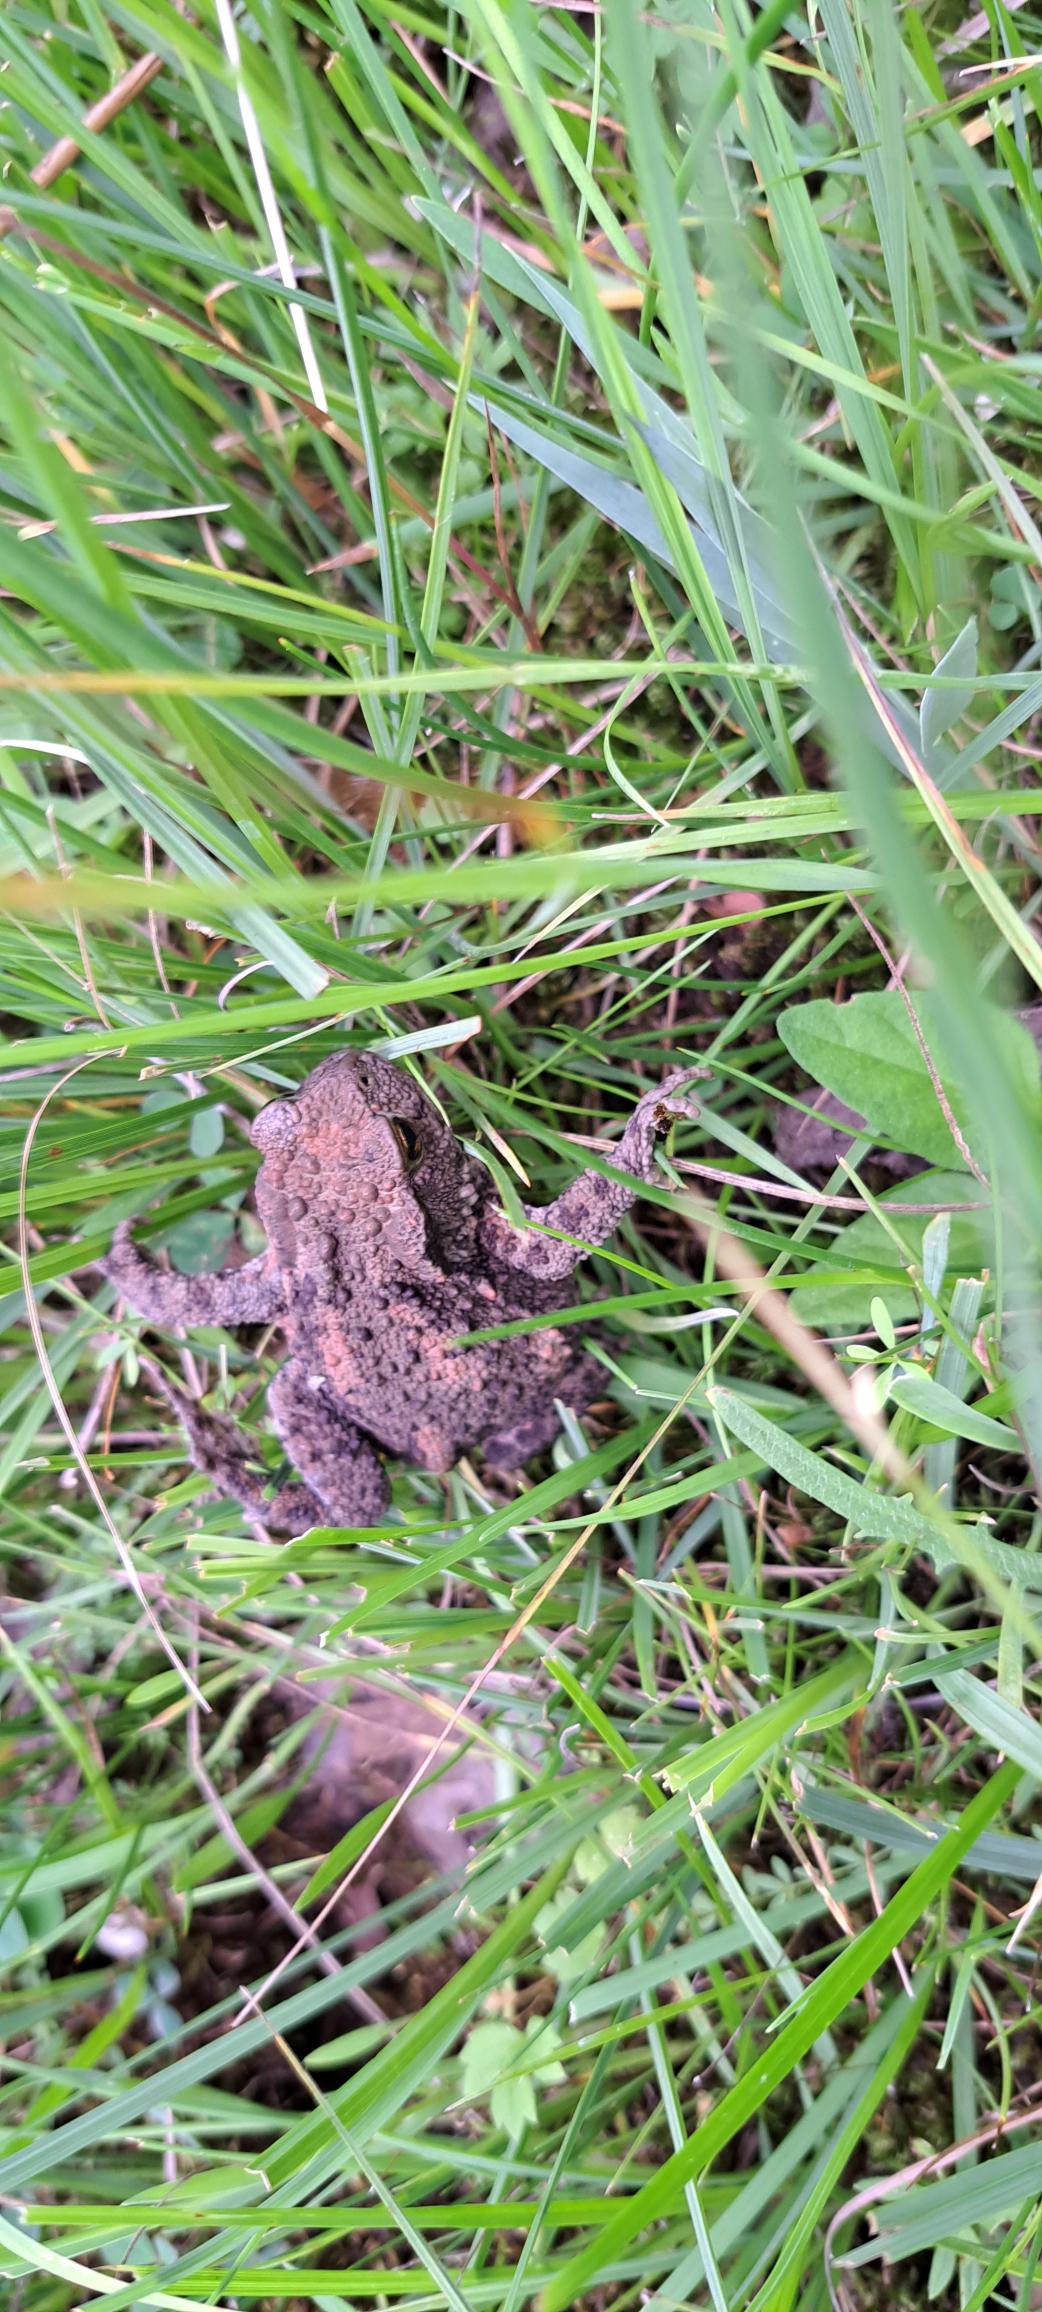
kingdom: Animalia
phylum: Chordata
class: Amphibia
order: Anura
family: Bufonidae
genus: Bufo
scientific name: Bufo bufo
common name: Skrubtudse
